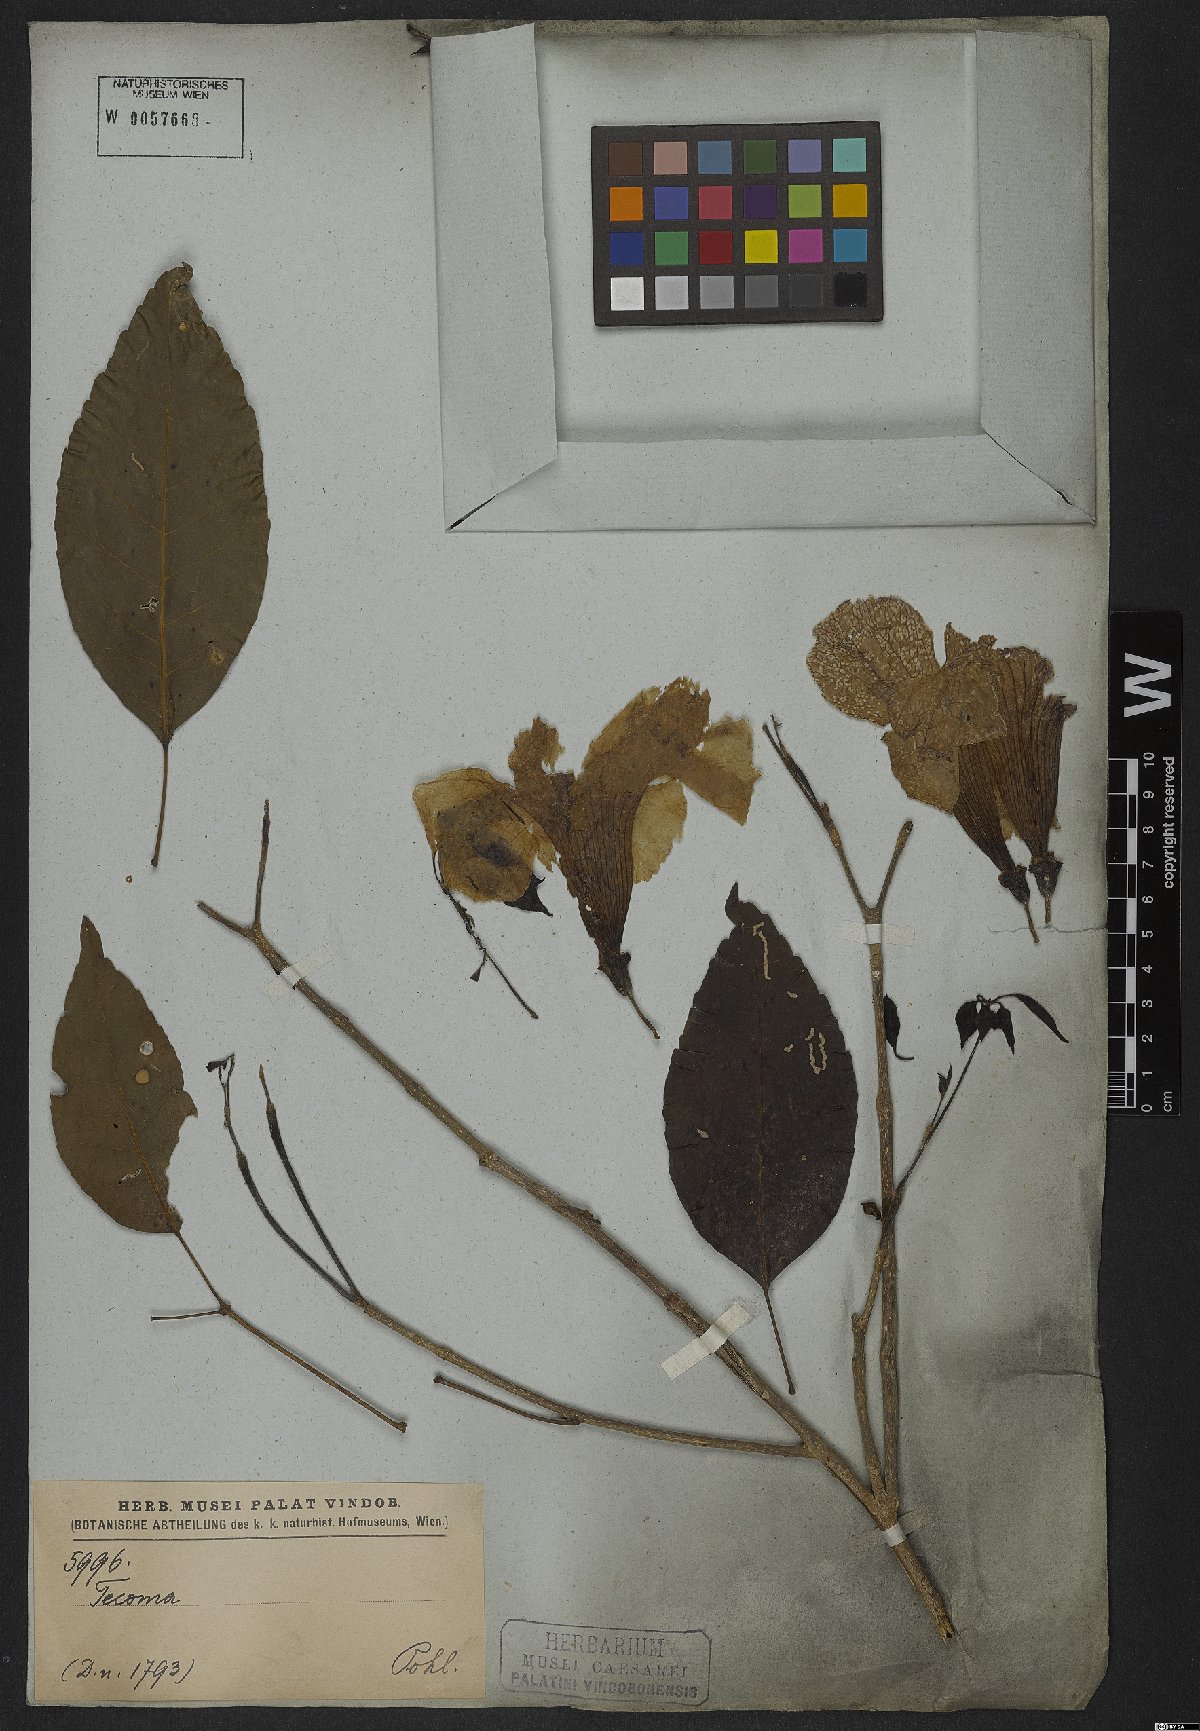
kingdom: Plantae
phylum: Tracheophyta
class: Magnoliopsida
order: Lamiales
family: Bignoniaceae
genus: Handroanthus
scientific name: Handroanthus serratifolius
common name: Yellow ipe
